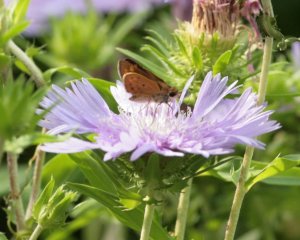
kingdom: Animalia
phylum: Arthropoda
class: Insecta
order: Lepidoptera
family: Hesperiidae
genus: Hylephila
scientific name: Hylephila phyleus
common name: Fiery Skipper
